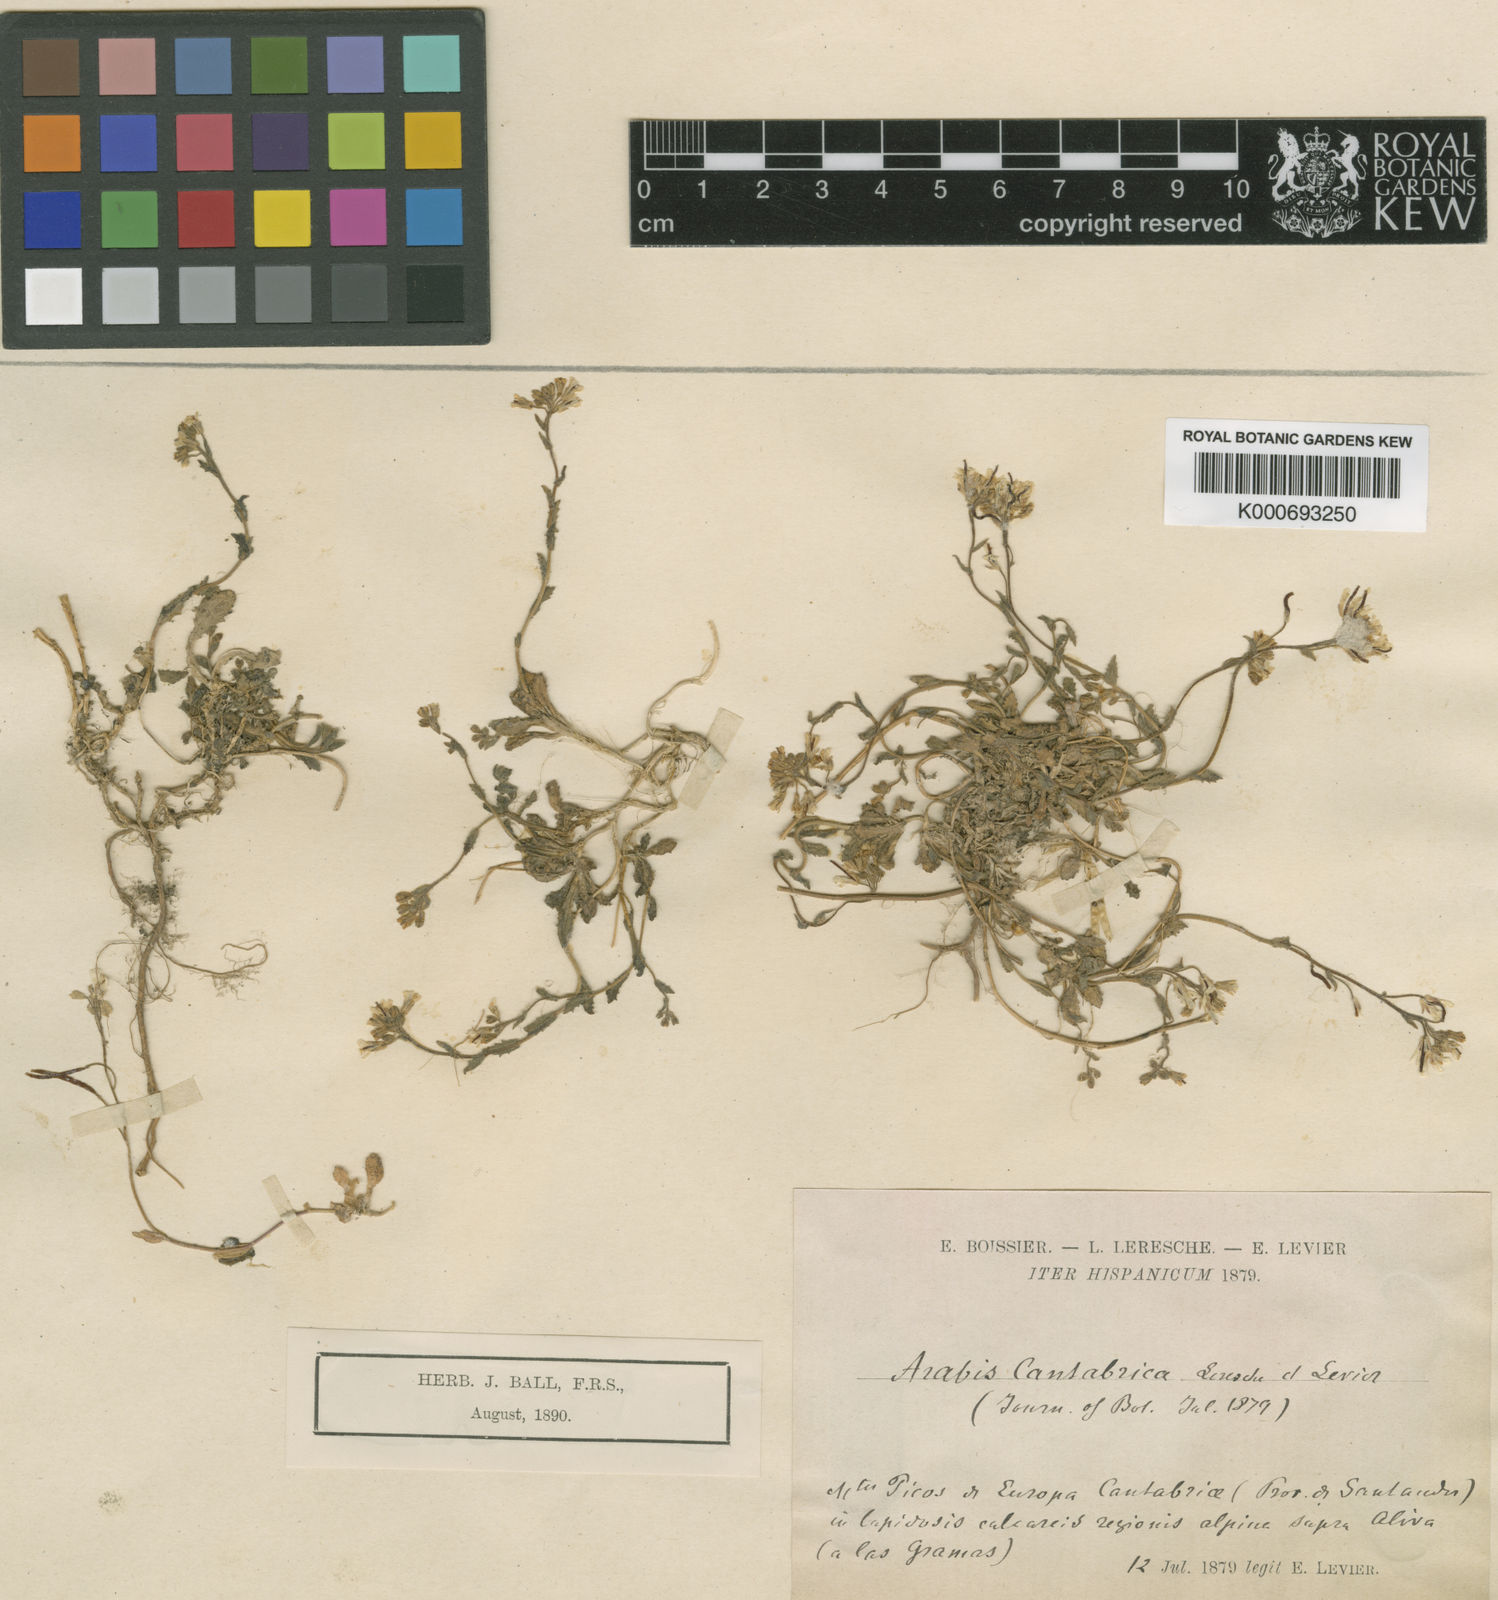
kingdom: Plantae
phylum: Tracheophyta
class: Magnoliopsida
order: Brassicales
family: Brassicaceae
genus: Arabis
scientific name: Arabis ciliata
